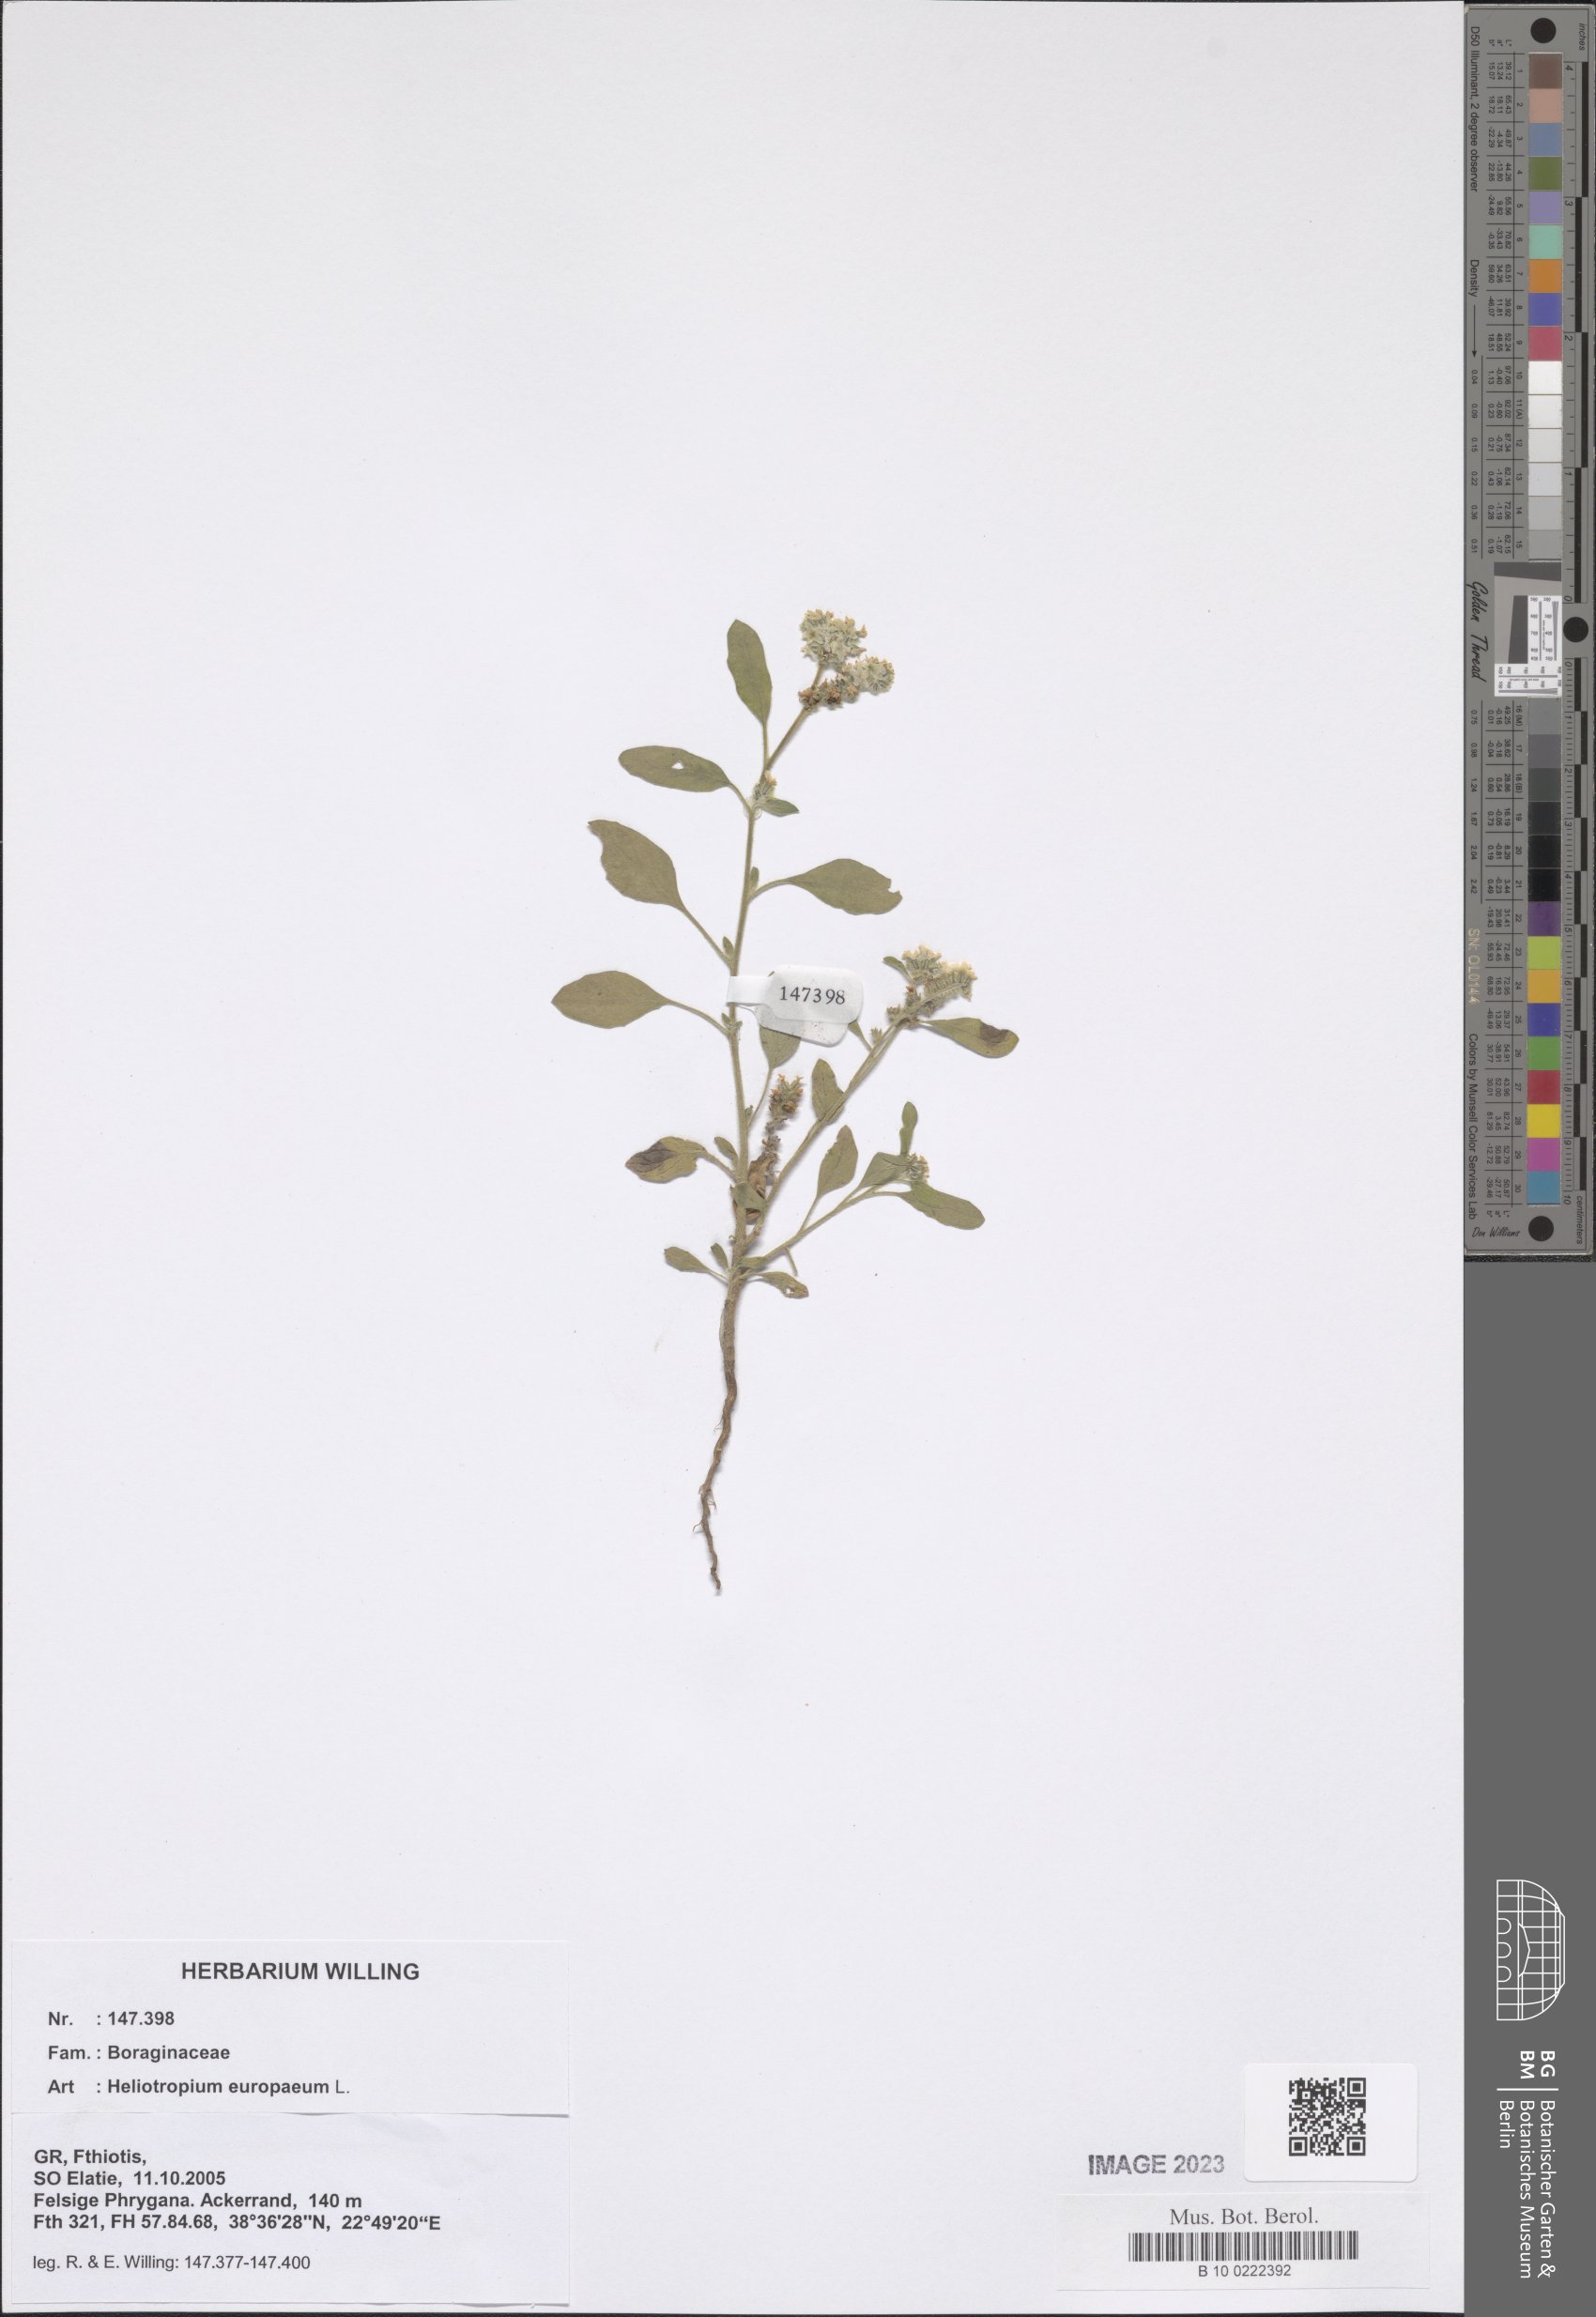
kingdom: Plantae
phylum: Tracheophyta
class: Magnoliopsida
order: Boraginales
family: Heliotropiaceae
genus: Heliotropium
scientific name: Heliotropium europaeum
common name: European heliotrope
